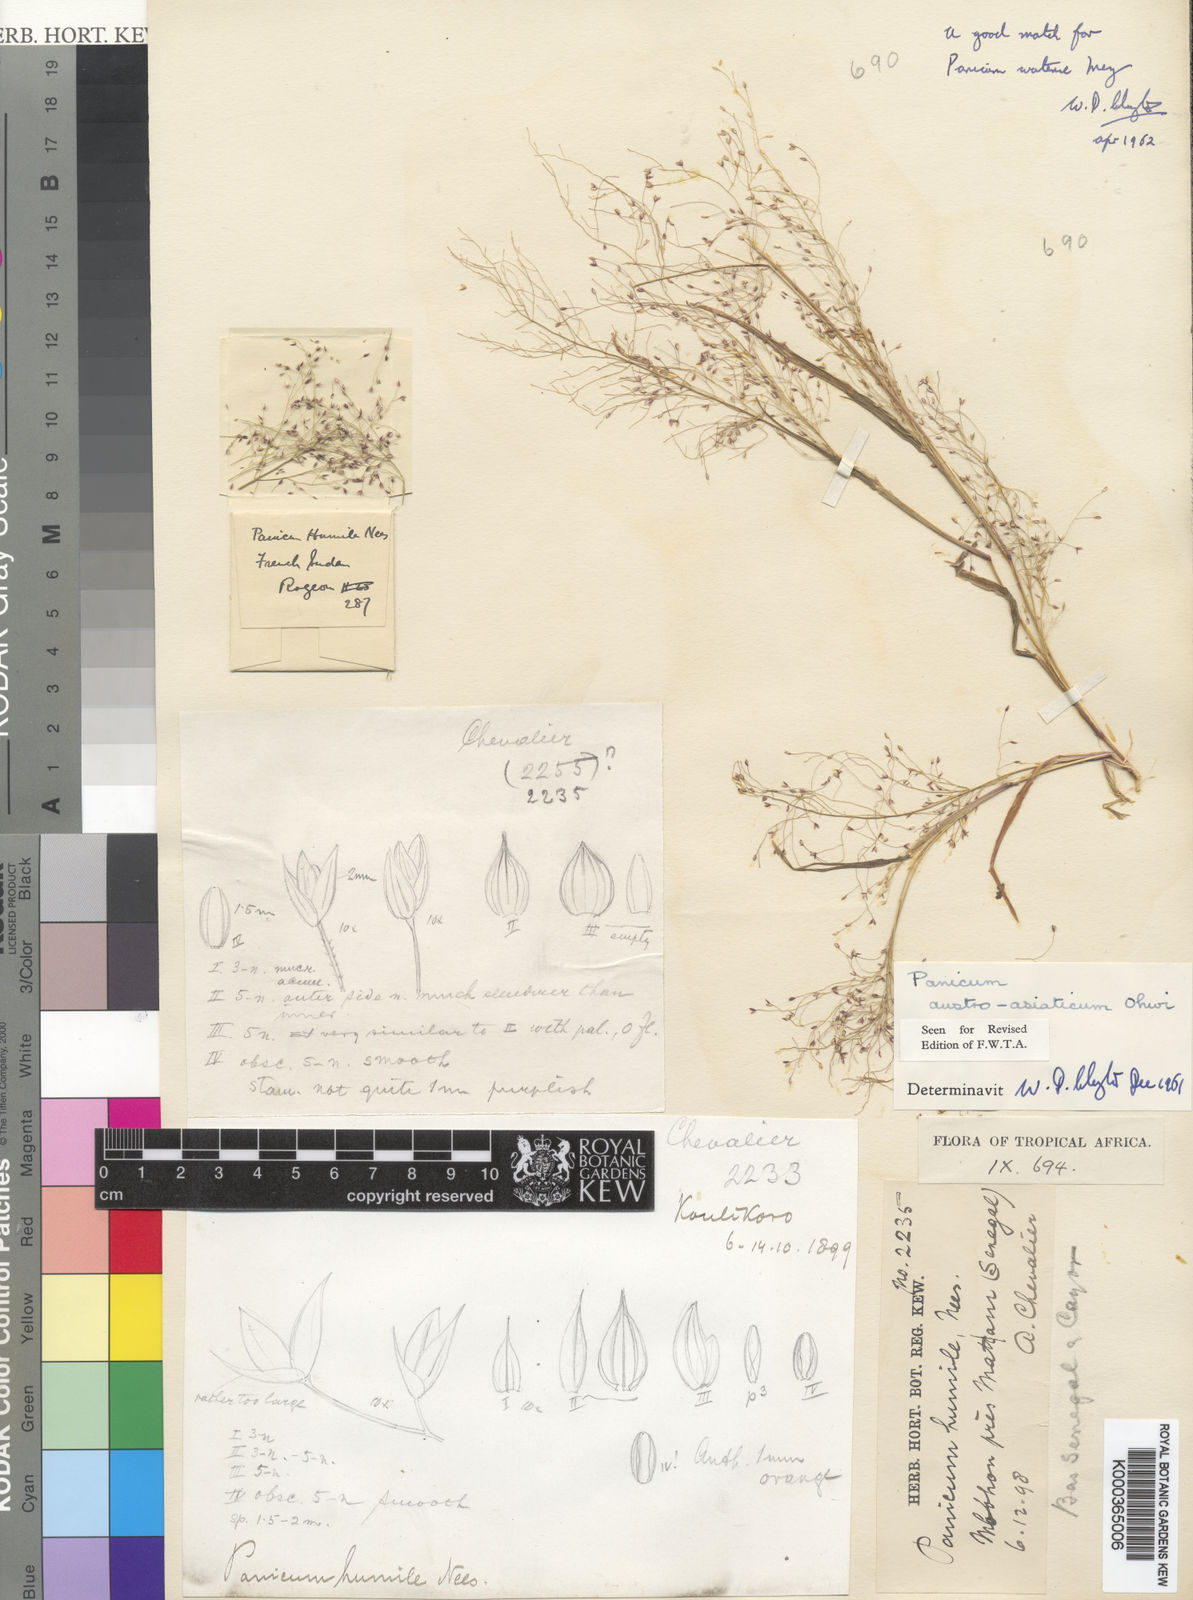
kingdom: Plantae
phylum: Tracheophyta
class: Liliopsida
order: Poales
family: Poaceae
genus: Panicum
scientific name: Panicum humile
